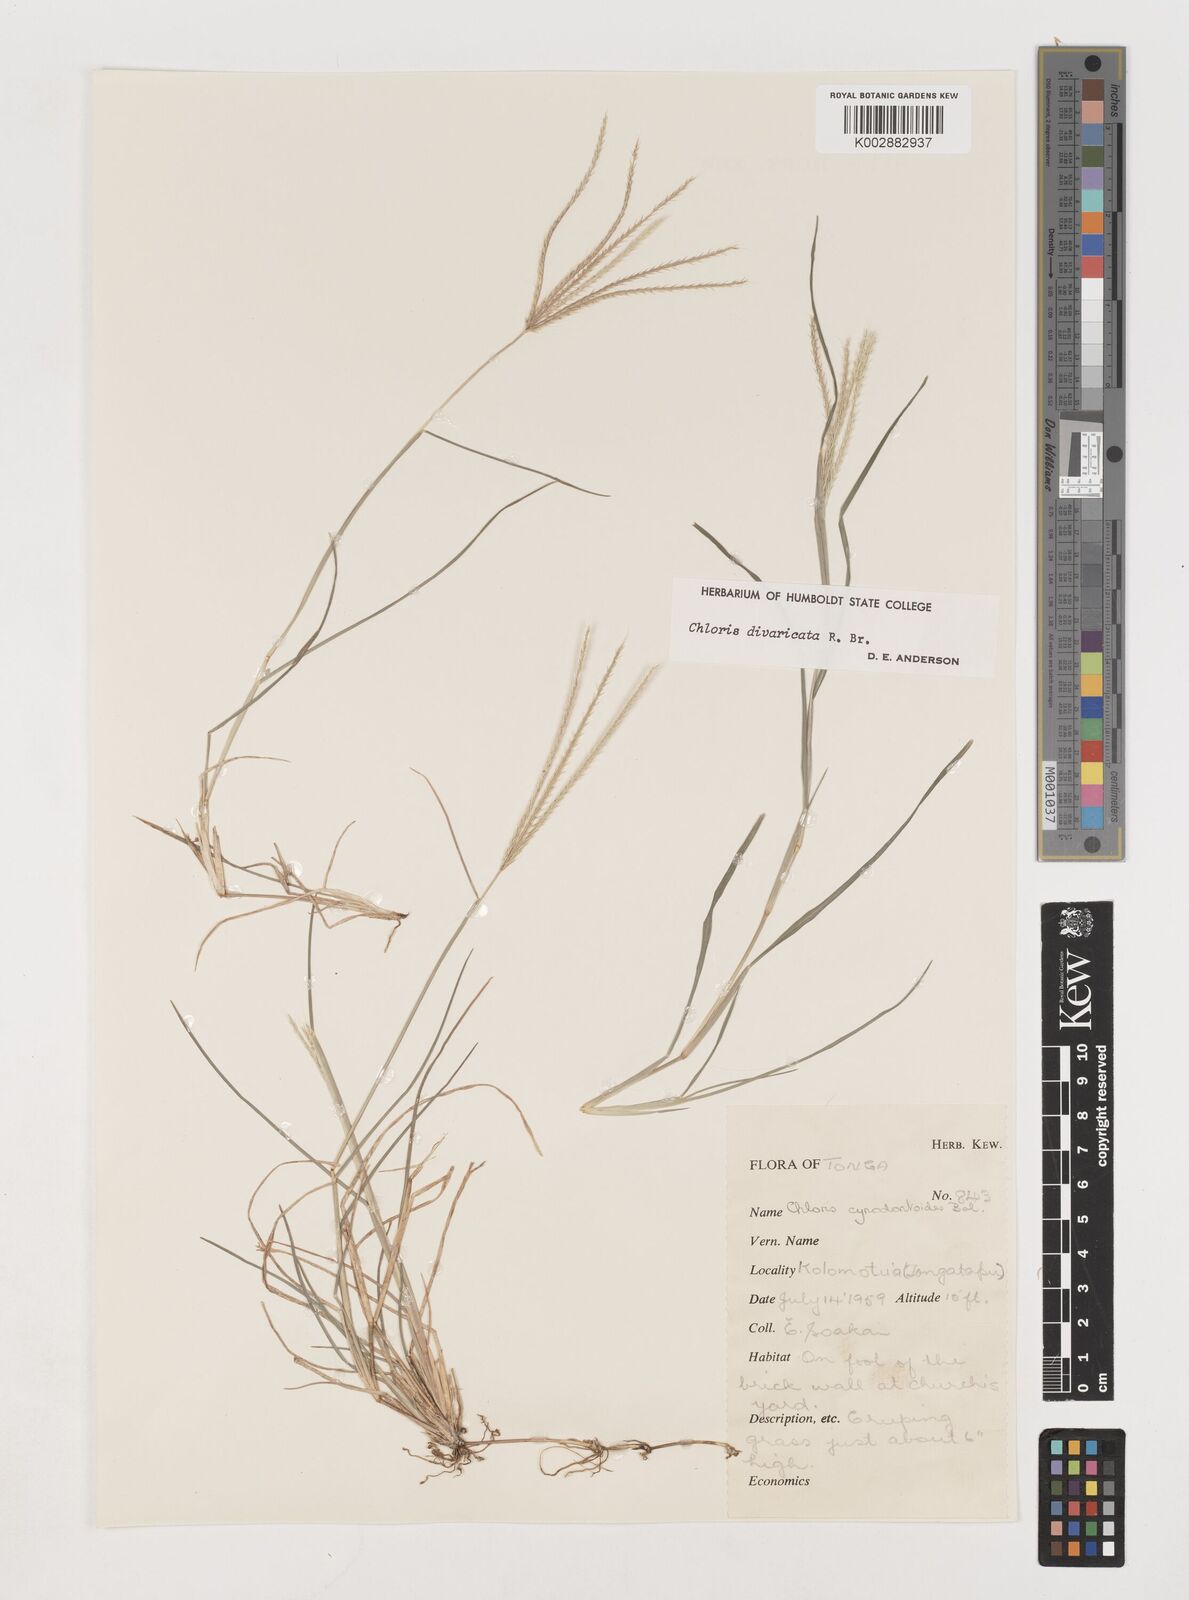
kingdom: Plantae
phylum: Tracheophyta
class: Liliopsida
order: Poales
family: Poaceae
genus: Chloris
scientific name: Chloris divaricata
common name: Spreading windmill grass
